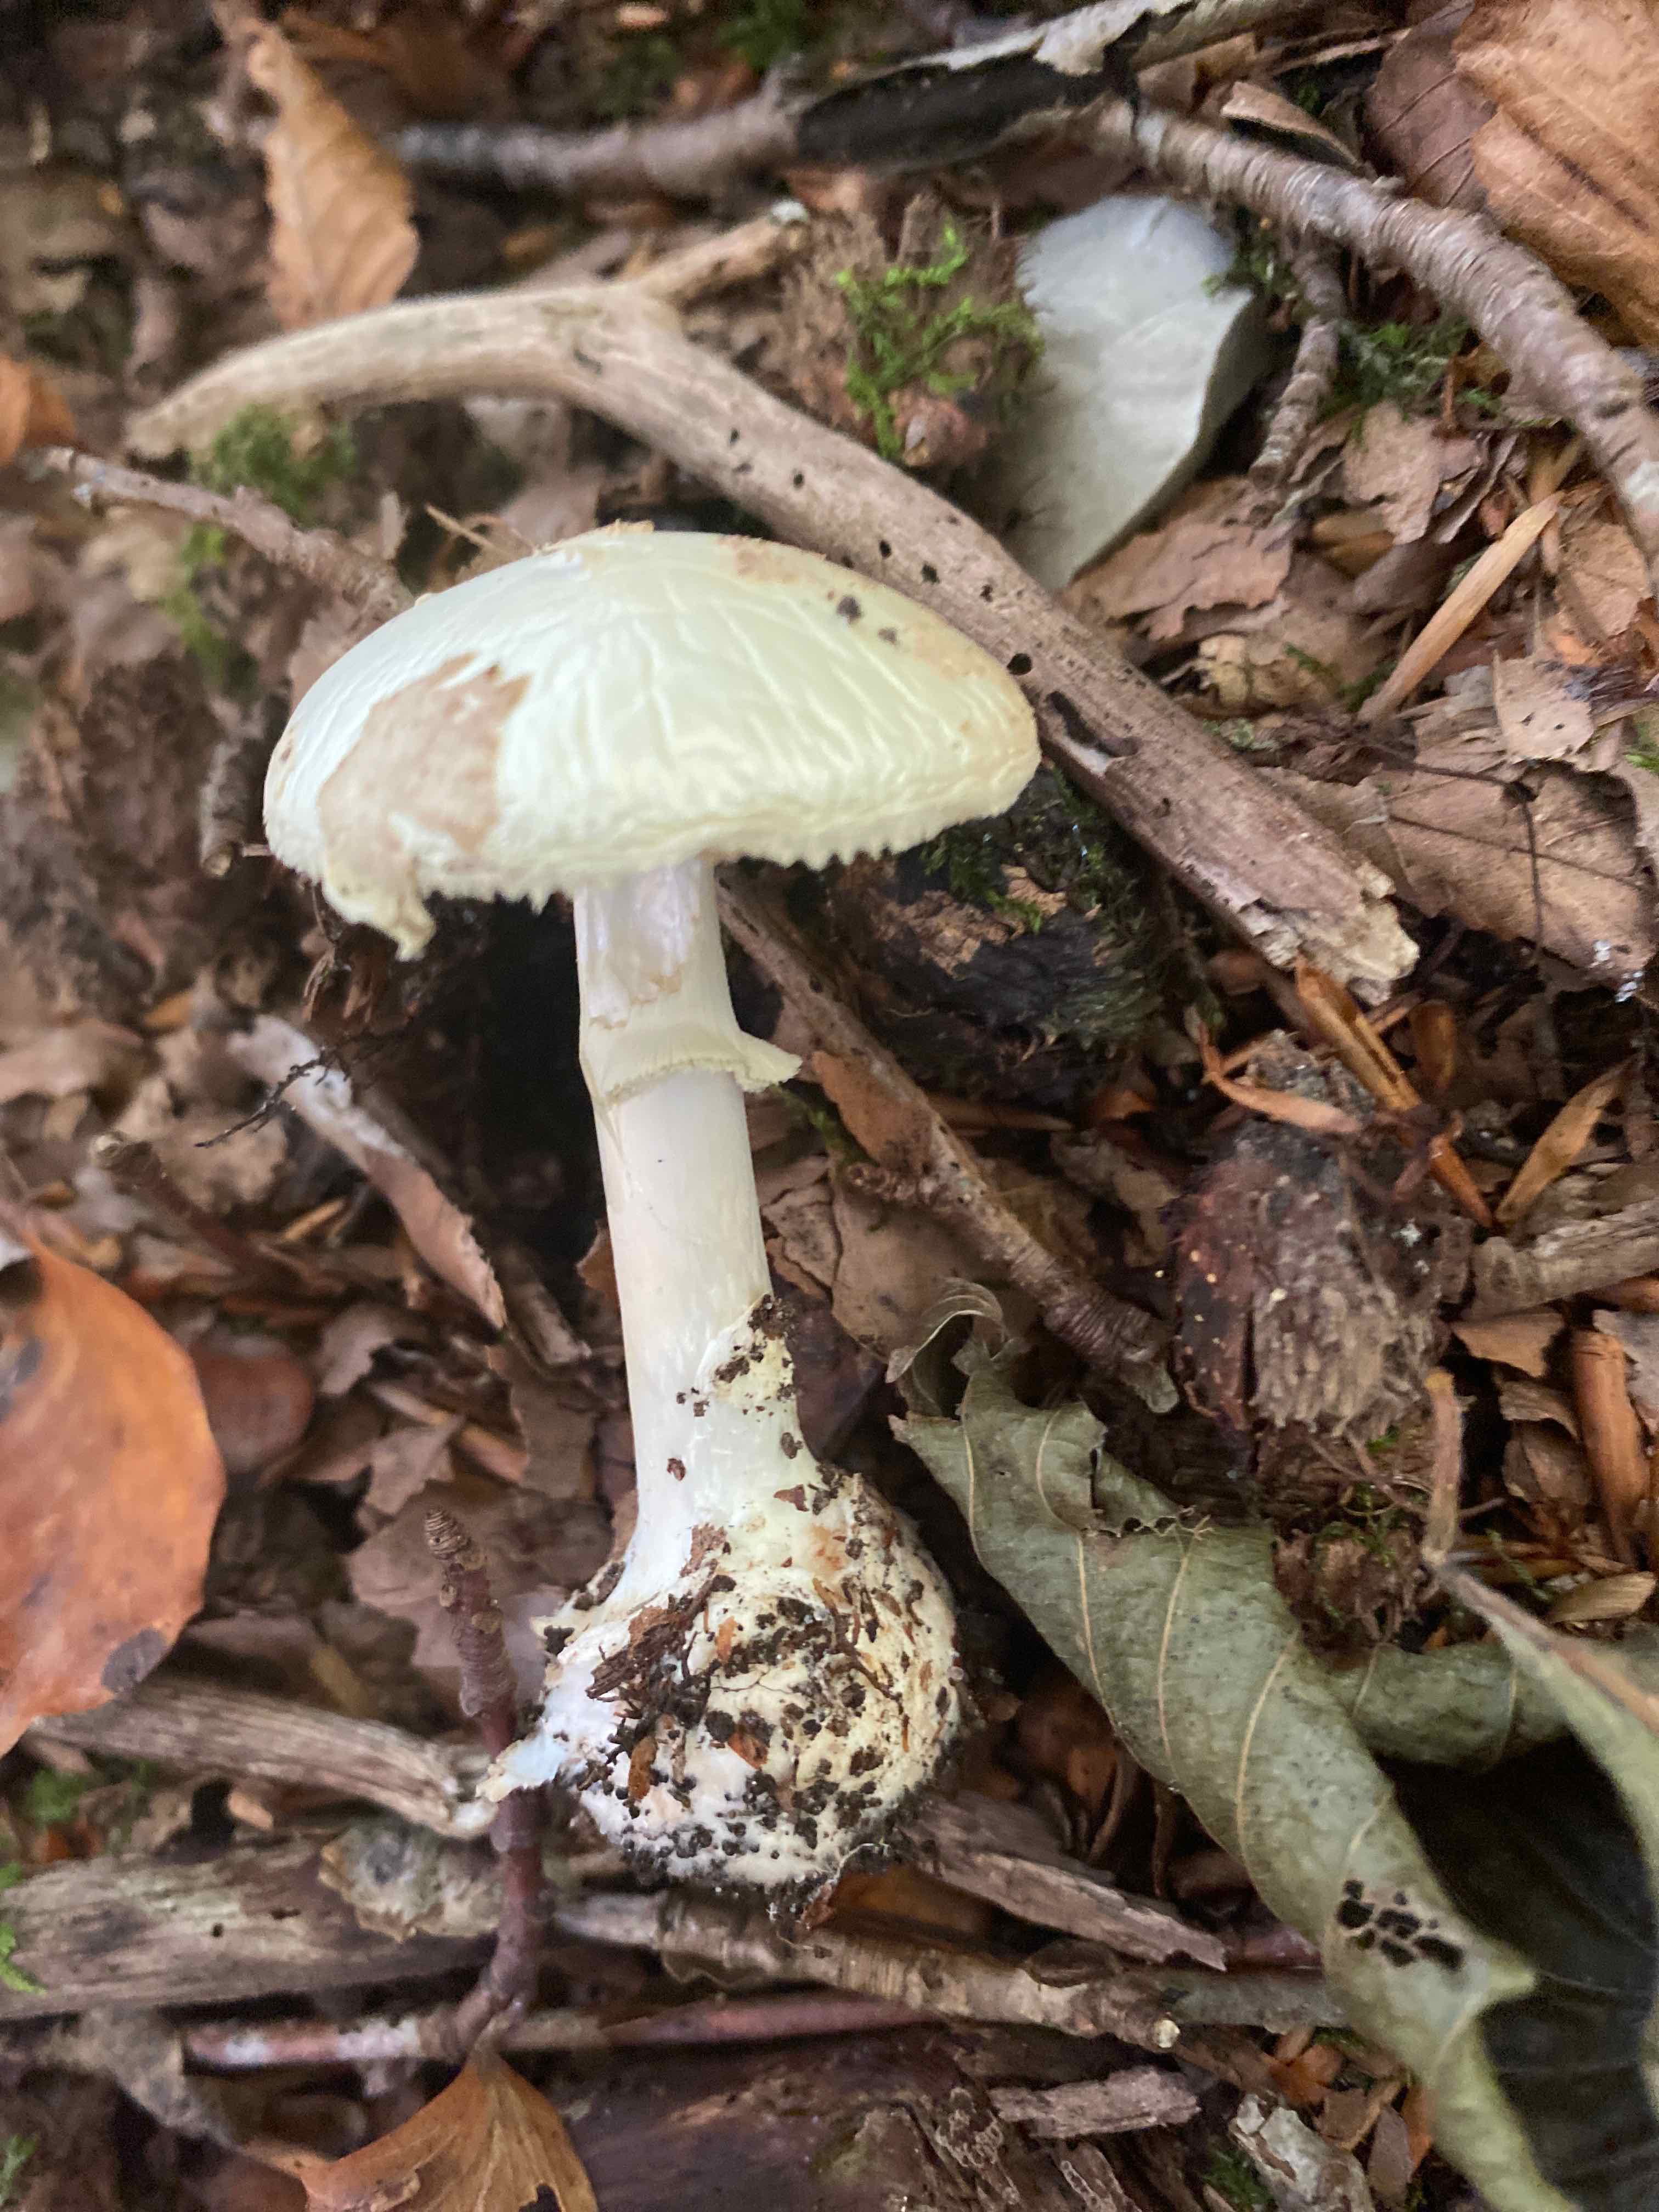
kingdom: Fungi
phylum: Basidiomycota
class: Agaricomycetes
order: Agaricales
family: Amanitaceae
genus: Amanita
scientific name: Amanita citrina
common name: kugleknoldet fluesvamp
